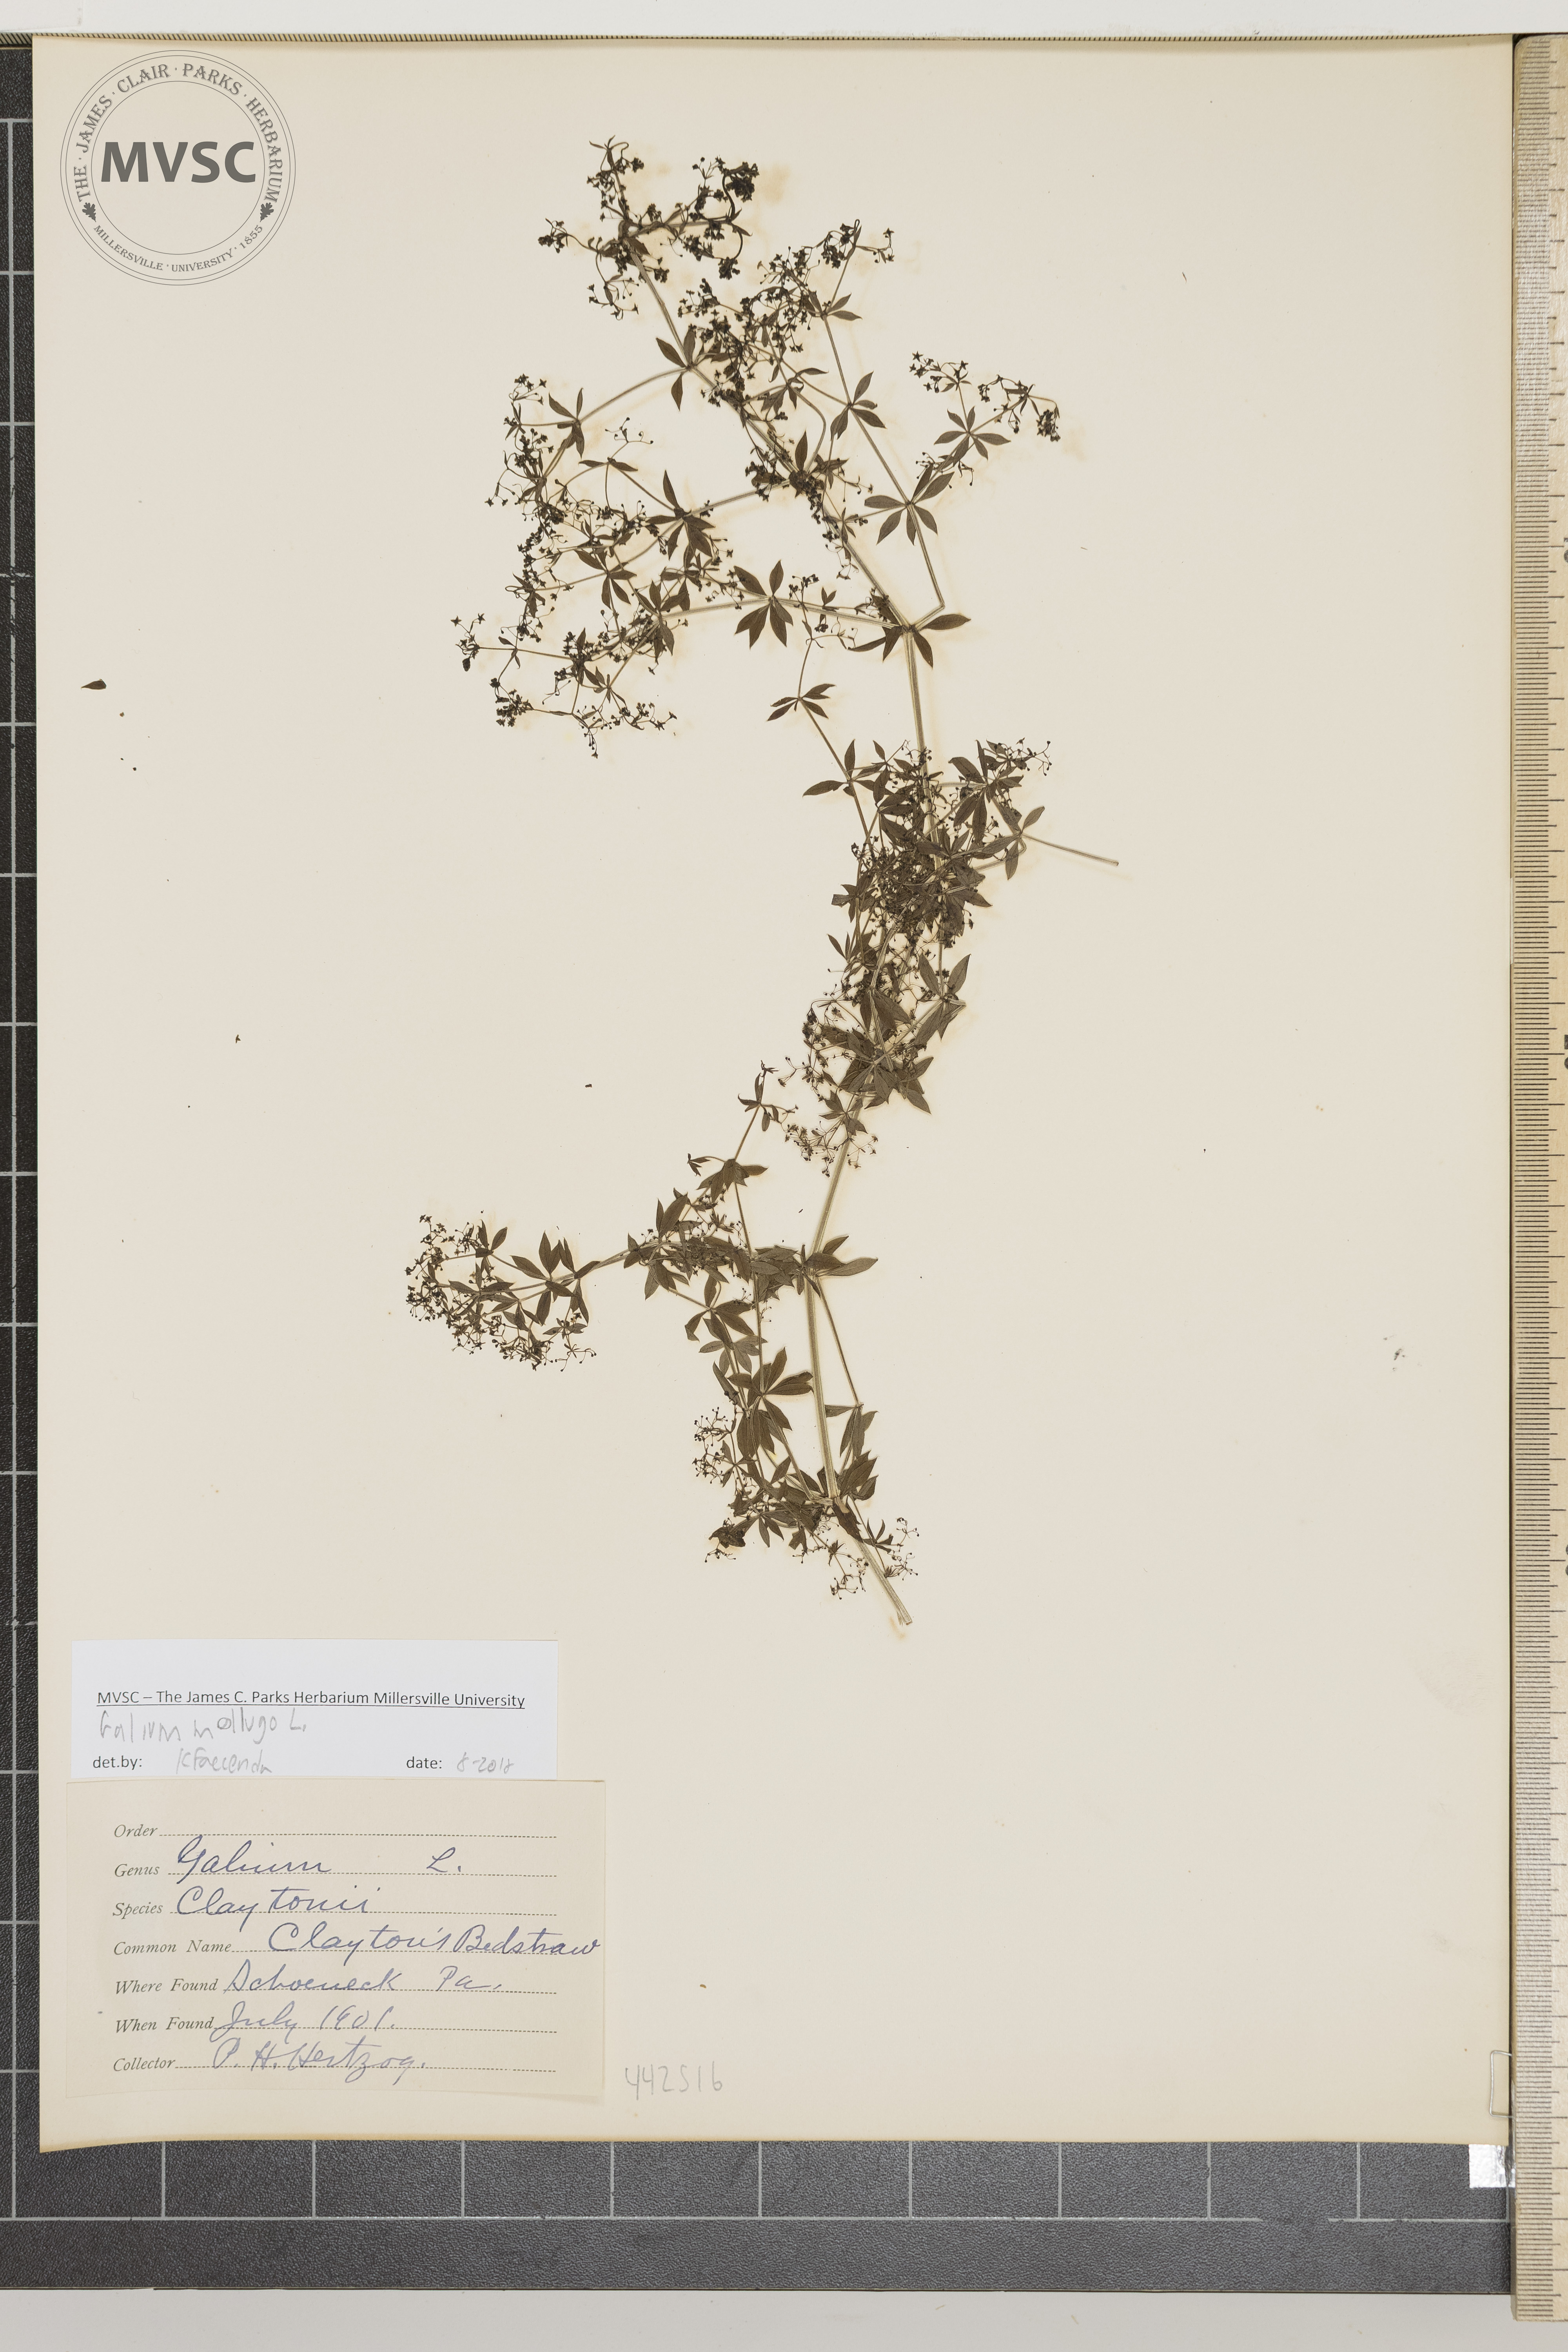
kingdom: Plantae
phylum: Tracheophyta
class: Magnoliopsida
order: Gentianales
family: Rubiaceae
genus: Galium
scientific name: Galium mollugo
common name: Bedstraw
